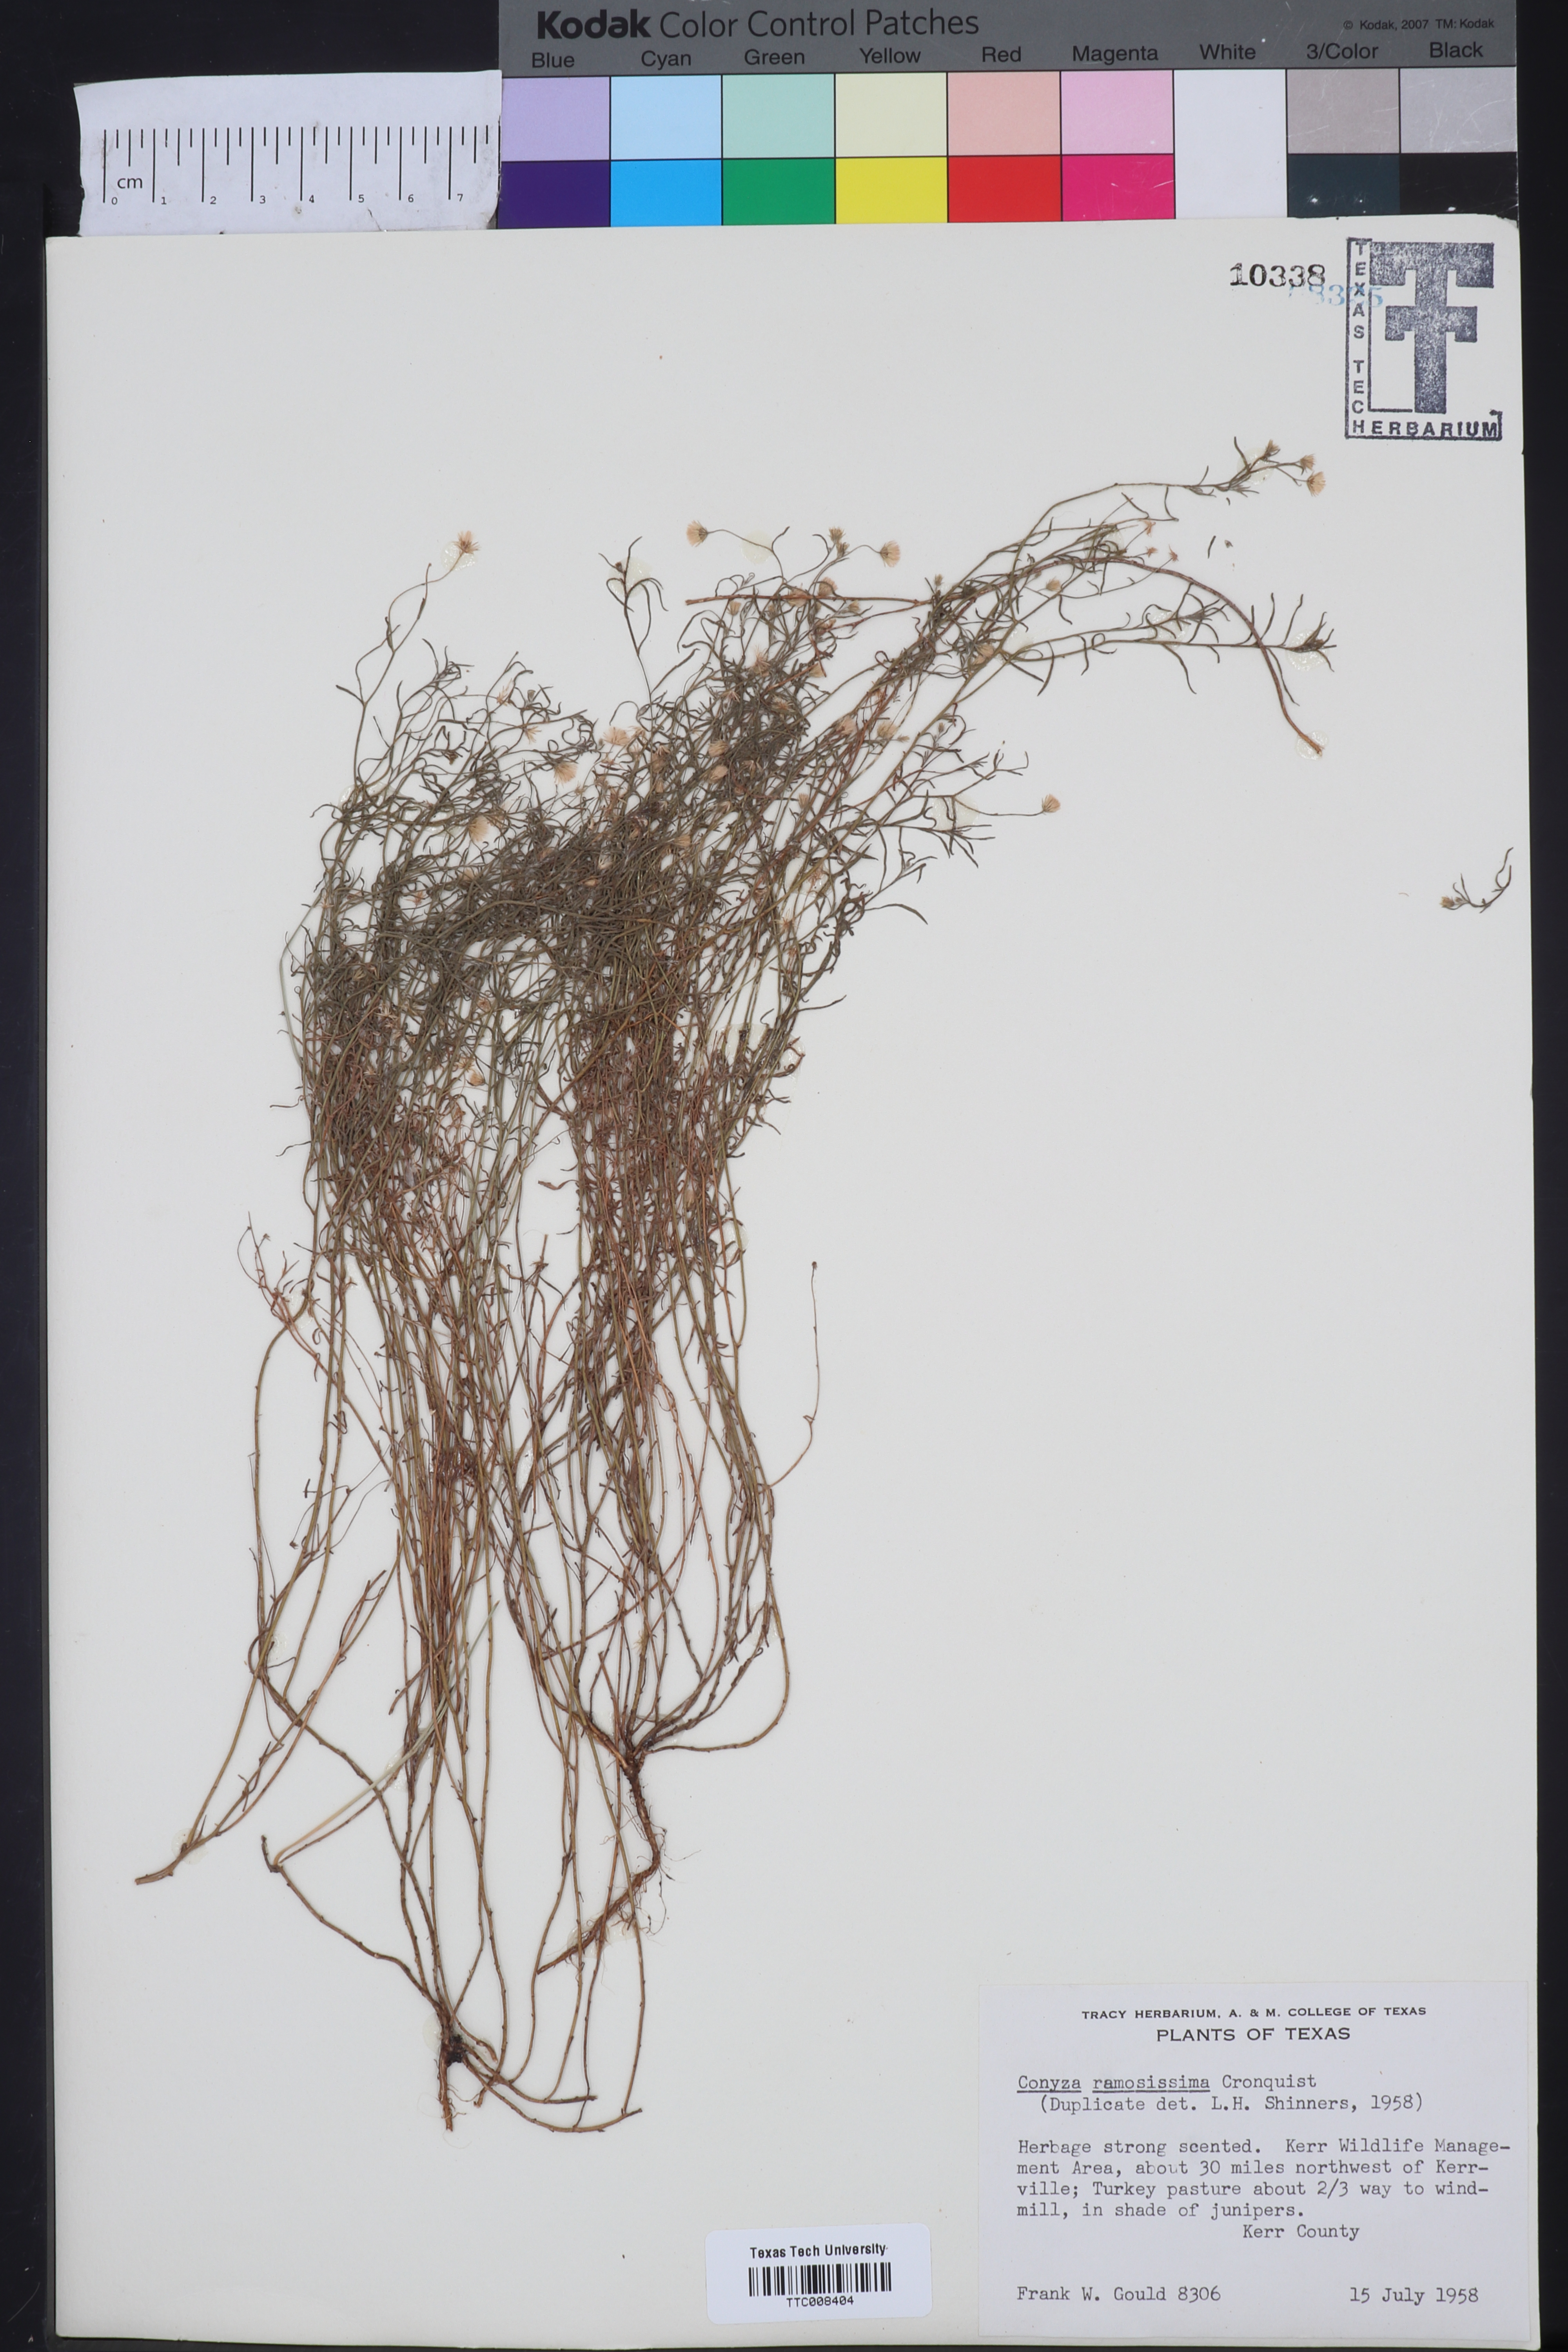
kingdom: Plantae
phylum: Tracheophyta
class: Magnoliopsida
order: Asterales
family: Asteraceae
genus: Erigeron
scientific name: Erigeron divaricatus
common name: Dwarf conyza
